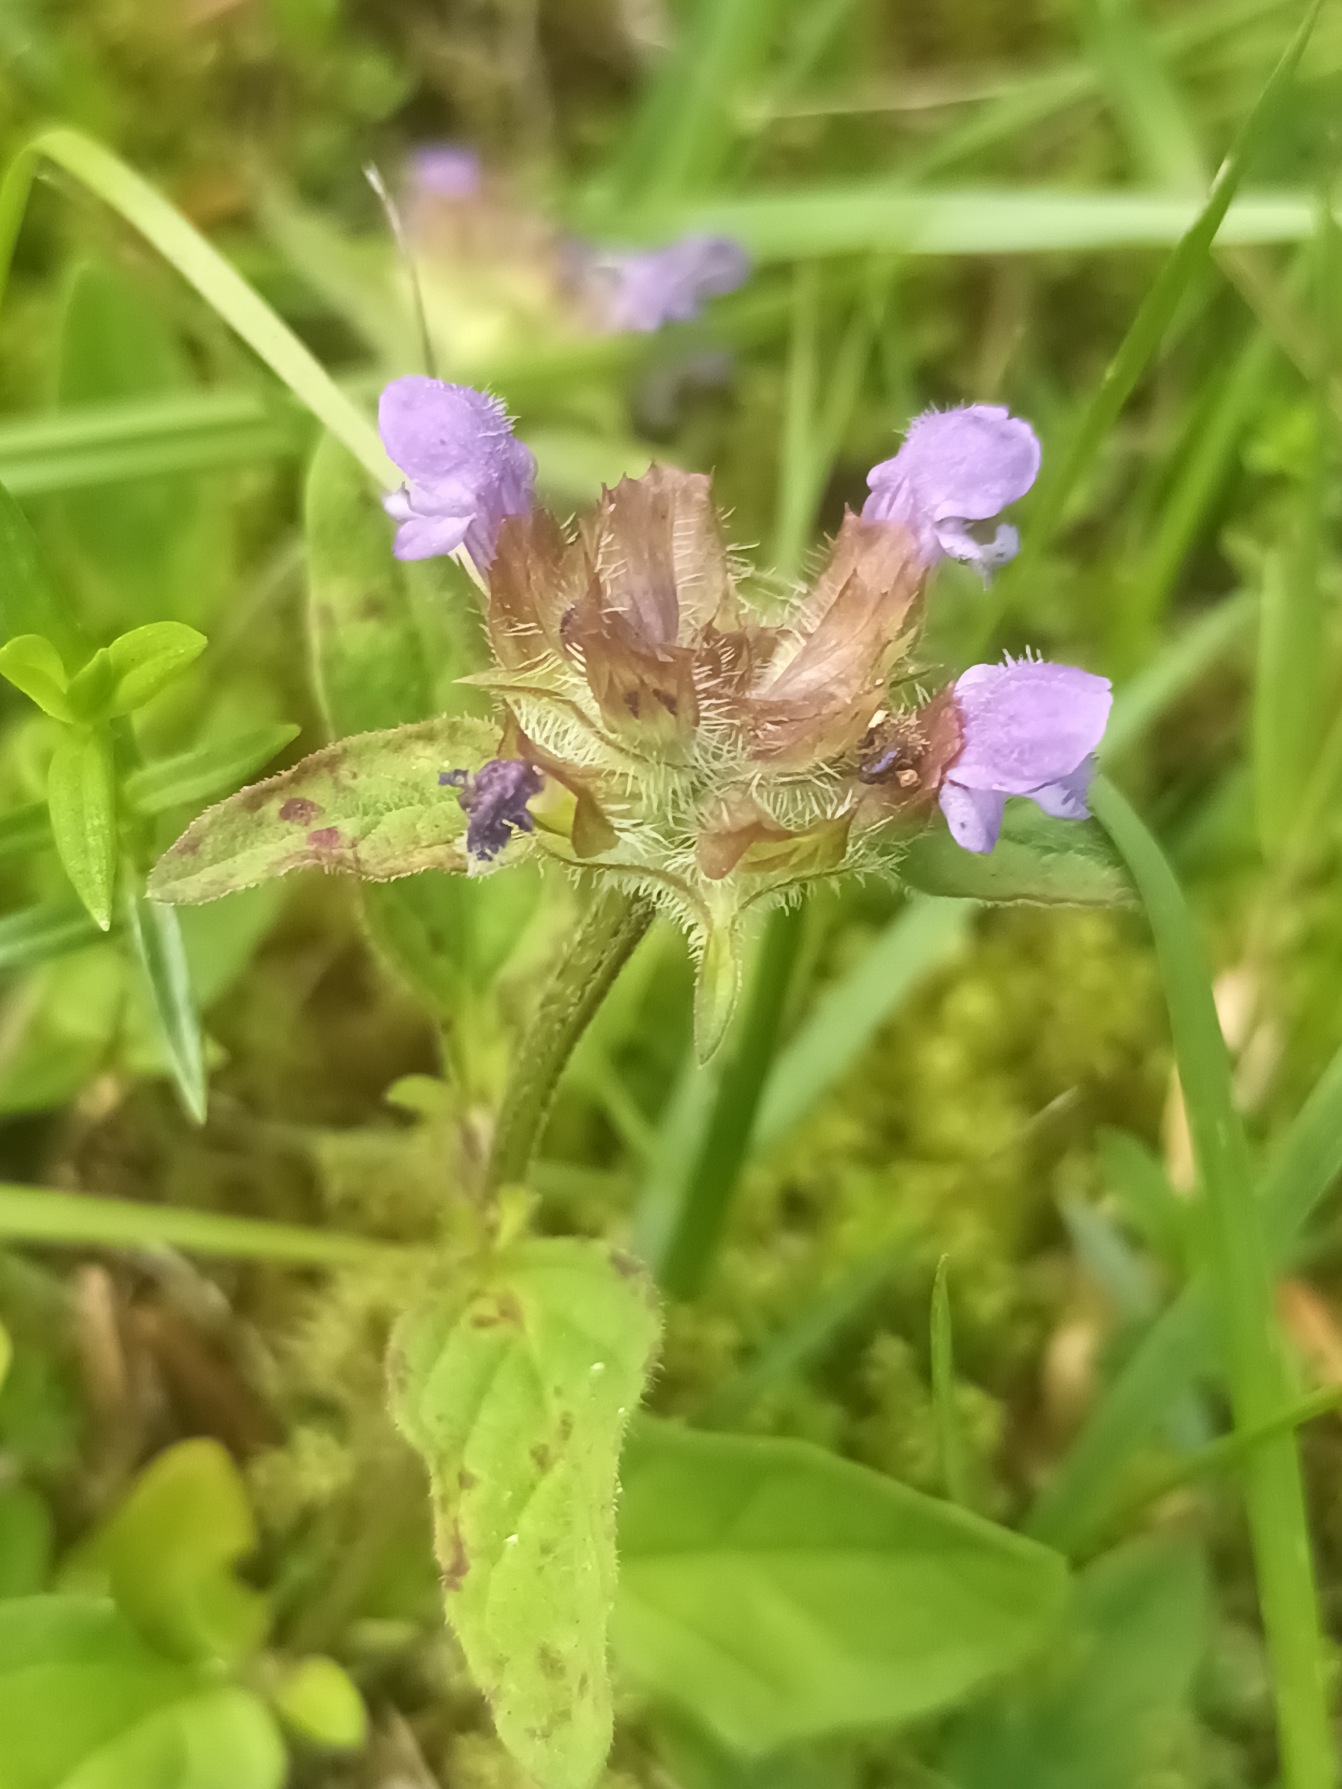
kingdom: Plantae
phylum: Tracheophyta
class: Magnoliopsida
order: Lamiales
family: Lamiaceae
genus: Prunella
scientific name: Prunella vulgaris
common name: Almindelig brunelle
